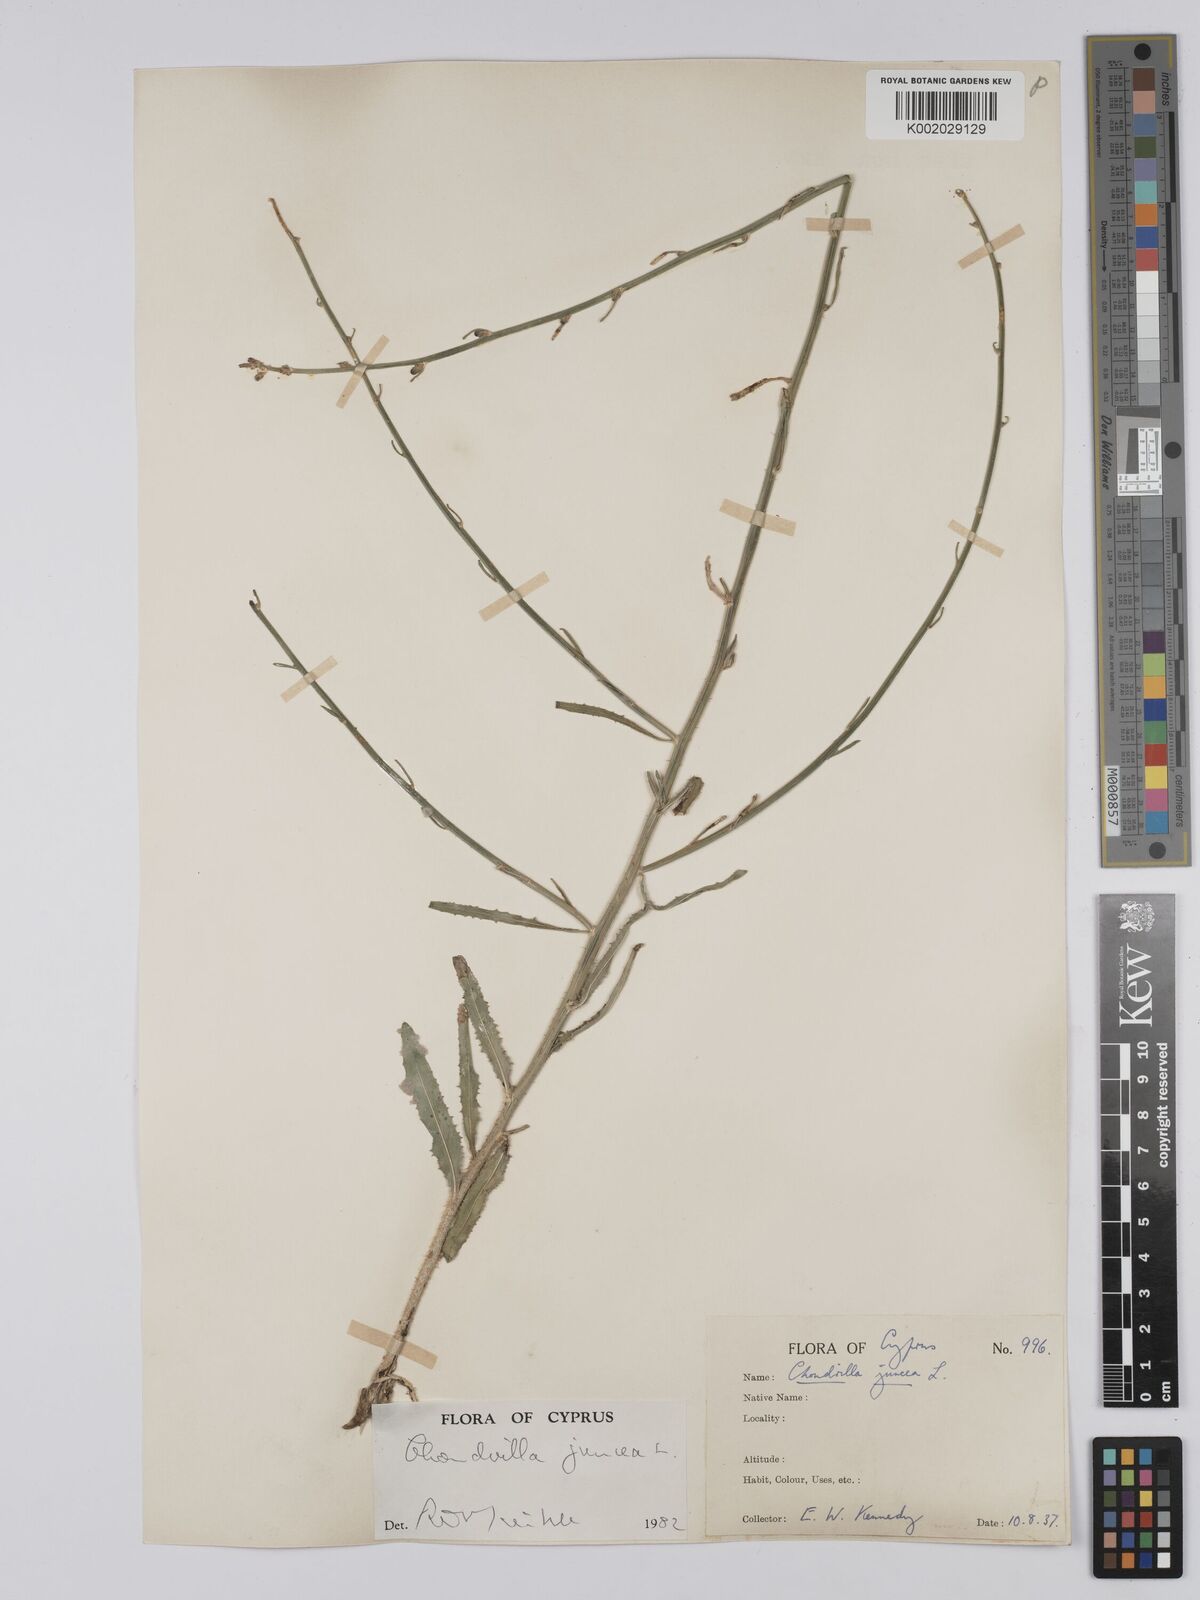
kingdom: Plantae
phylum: Tracheophyta
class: Magnoliopsida
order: Asterales
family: Asteraceae
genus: Chondrilla
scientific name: Chondrilla juncea
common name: Skeleton weed
